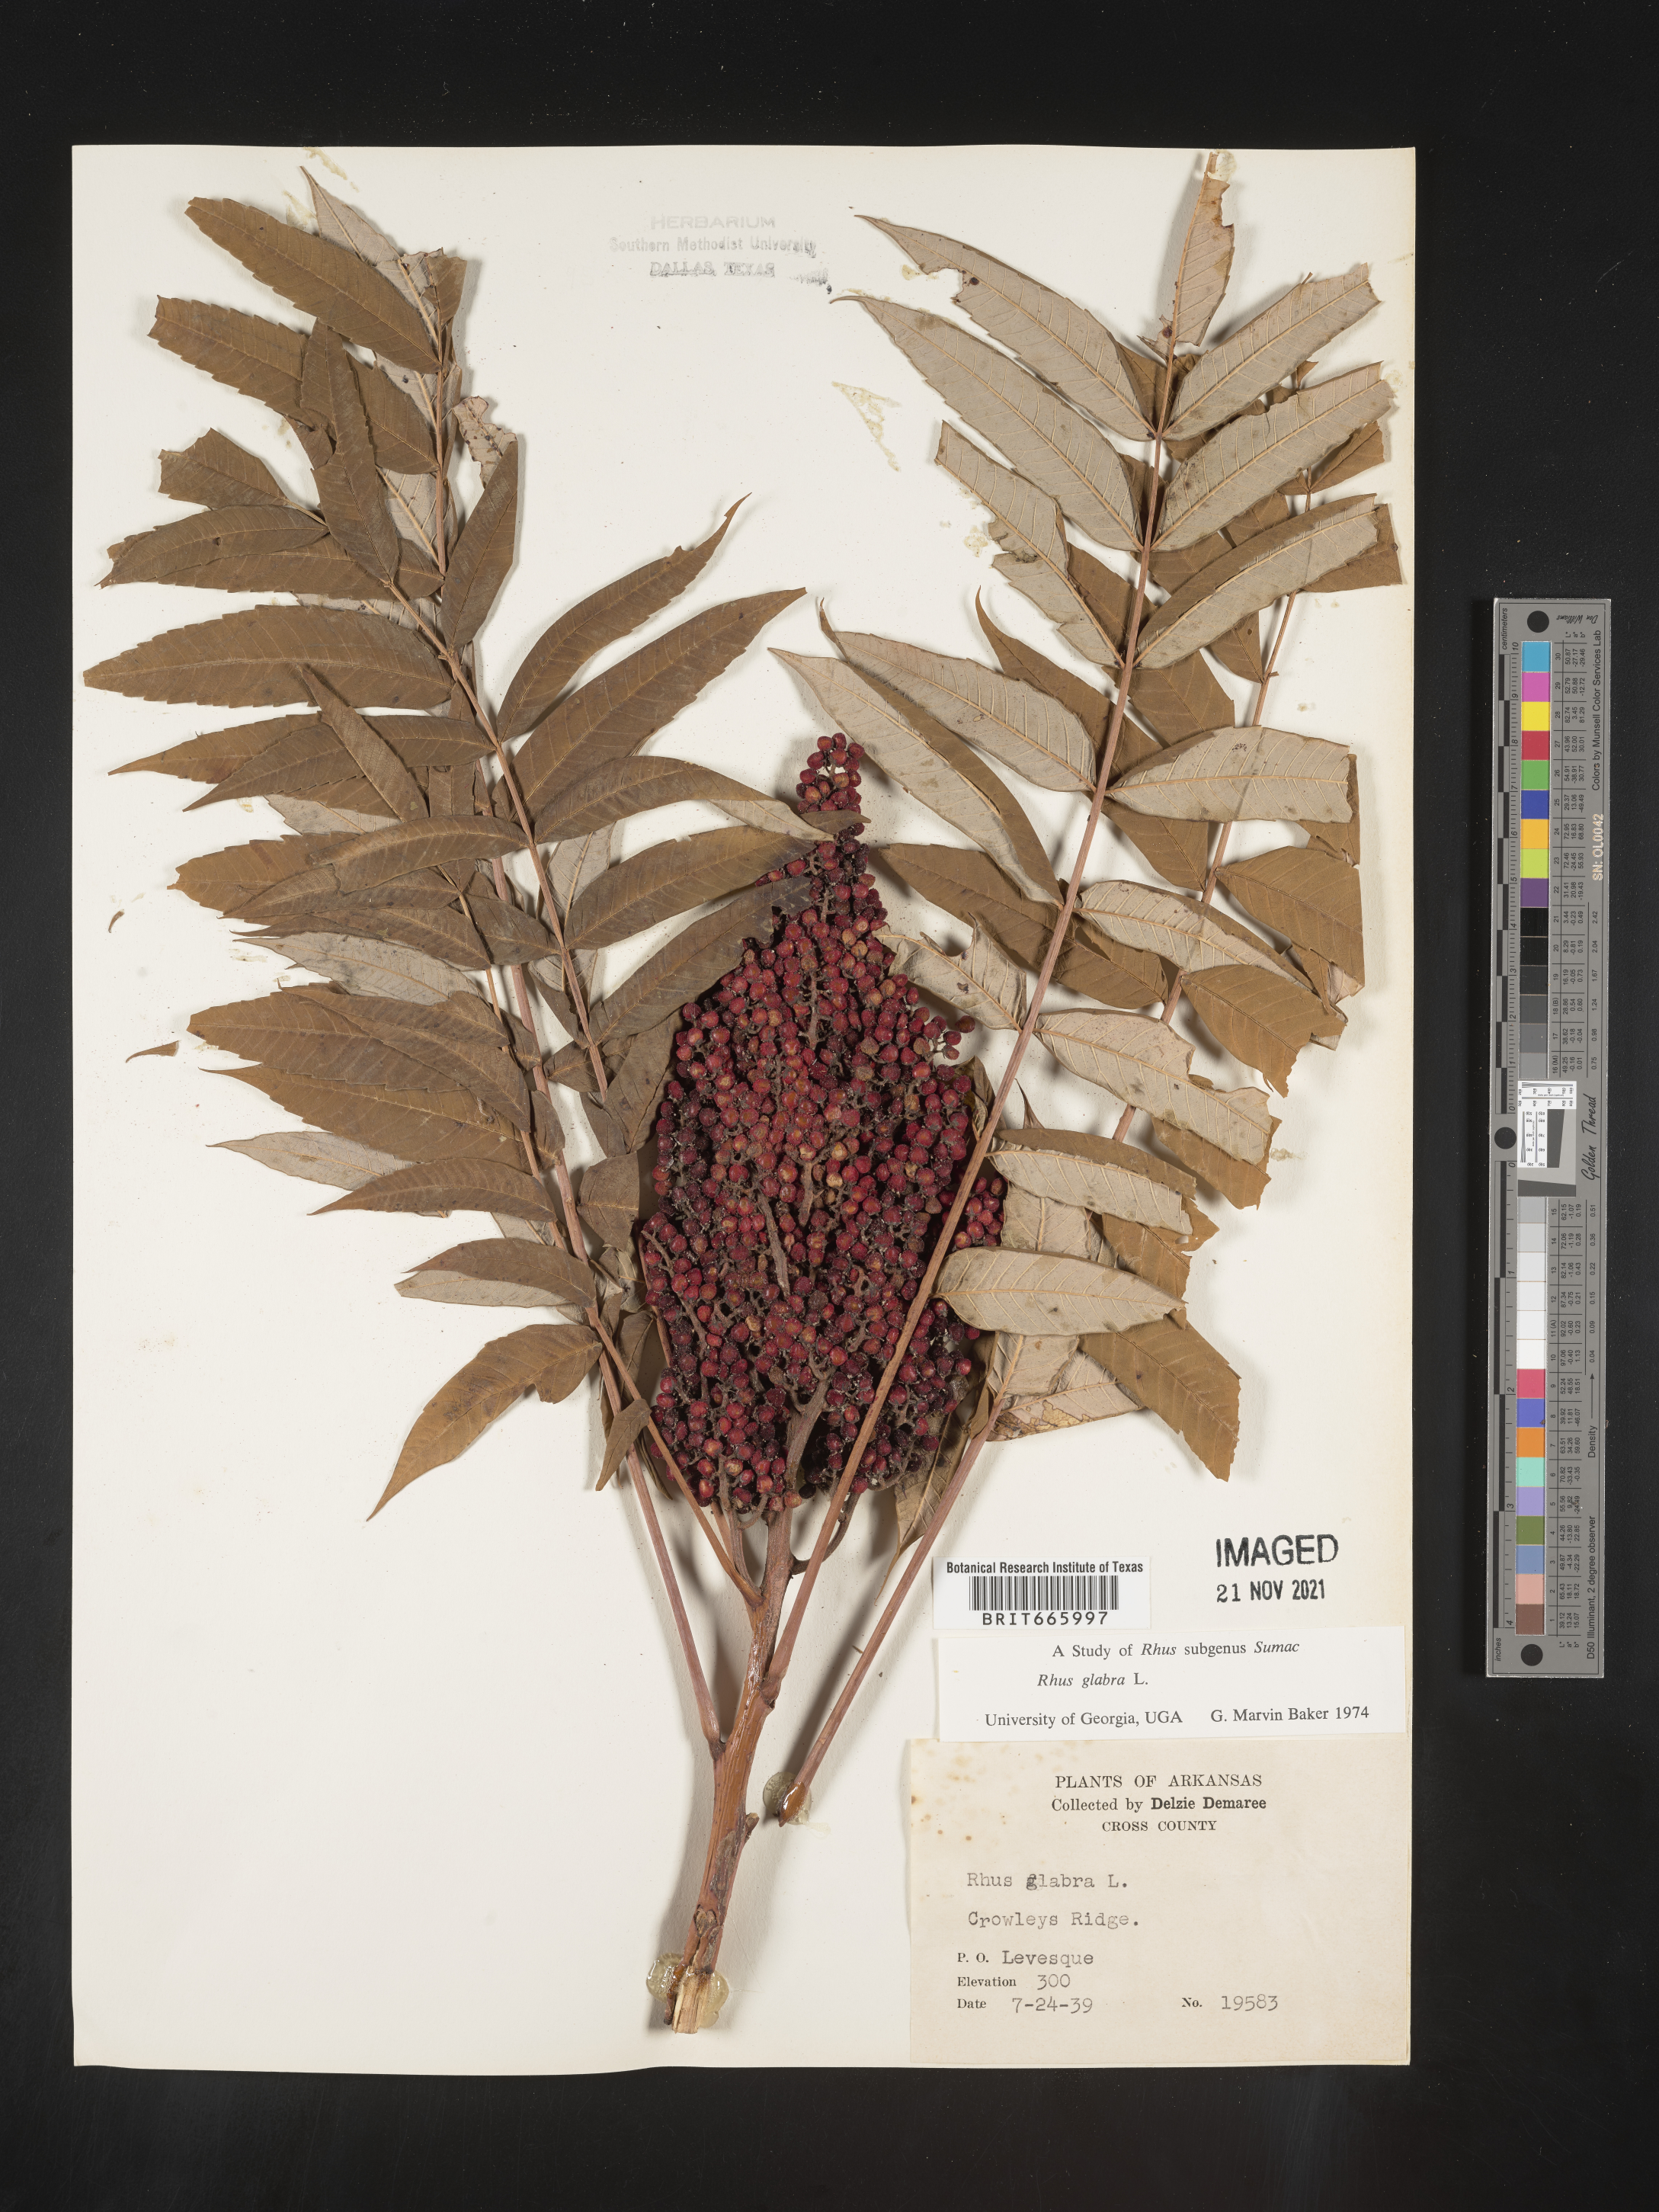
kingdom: Plantae
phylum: Tracheophyta
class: Magnoliopsida
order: Sapindales
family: Anacardiaceae
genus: Rhus
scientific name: Rhus glabra
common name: Scarlet sumac
